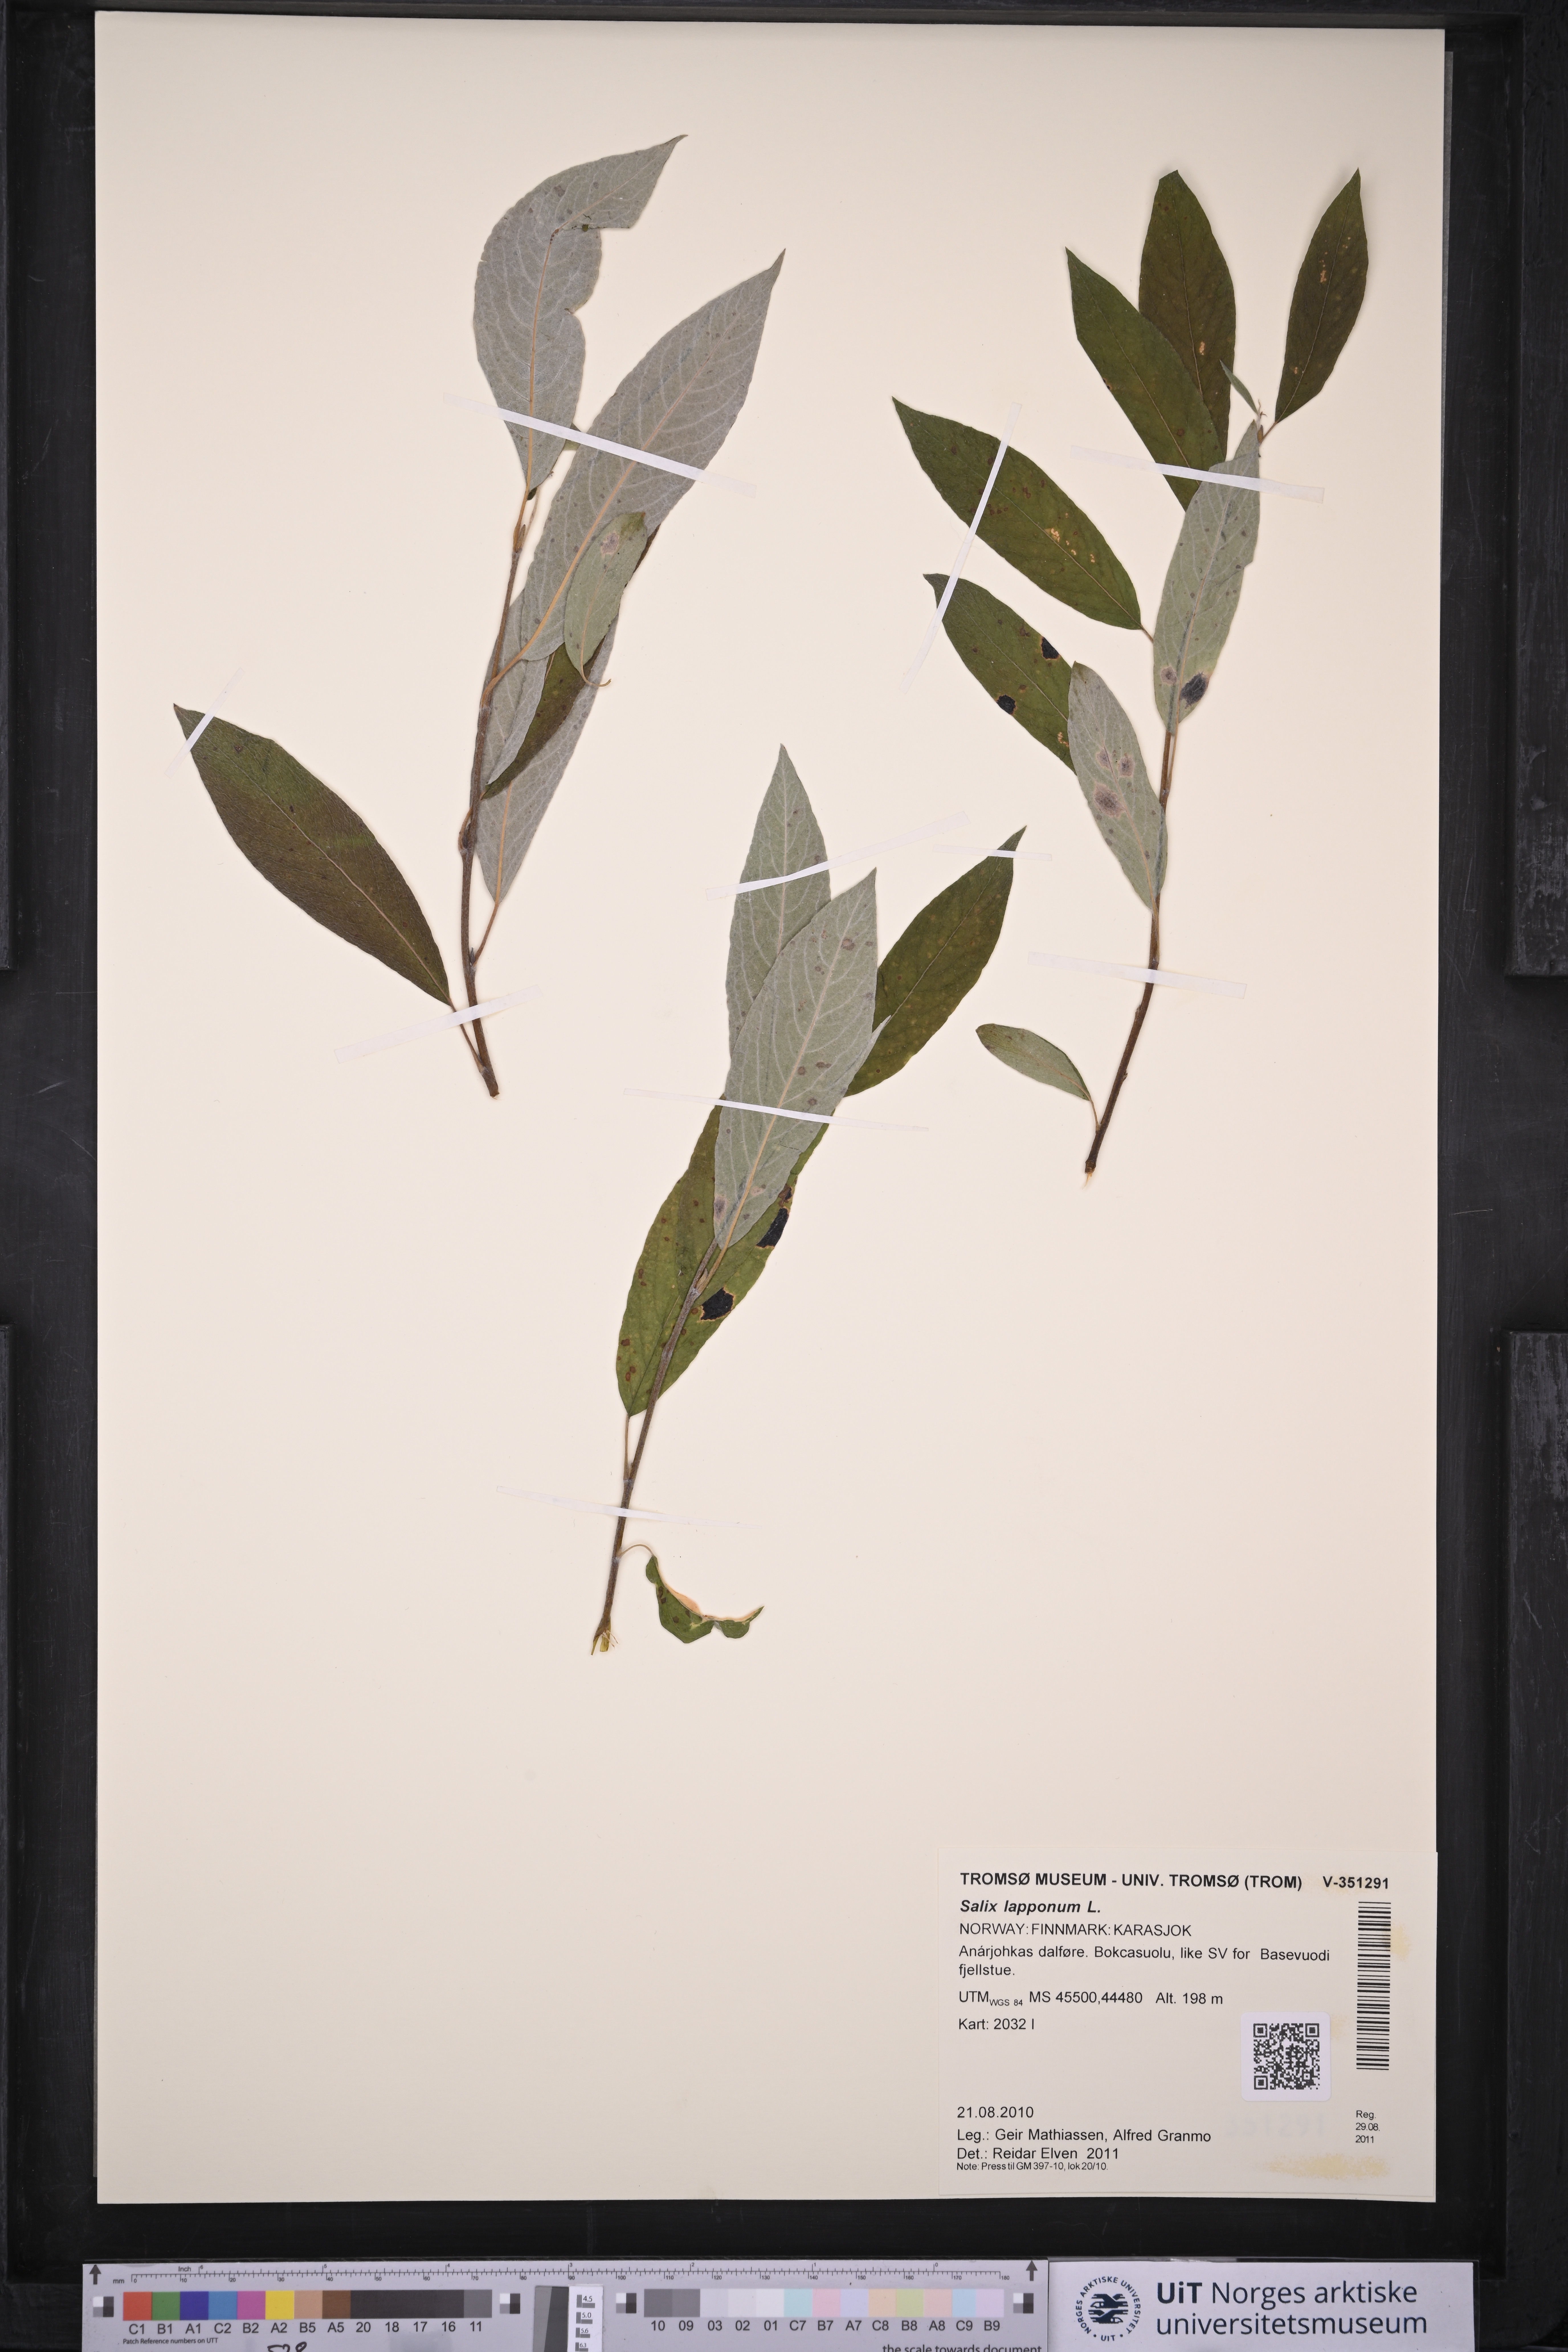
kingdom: Plantae
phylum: Tracheophyta
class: Magnoliopsida
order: Malpighiales
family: Salicaceae
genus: Salix
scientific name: Salix lapponum
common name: Downy willow
